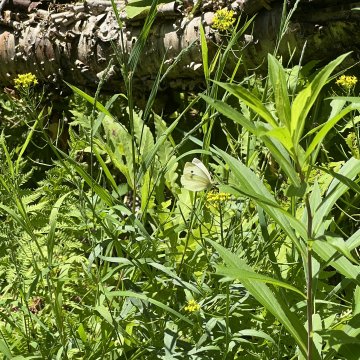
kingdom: Animalia
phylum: Arthropoda
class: Insecta
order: Lepidoptera
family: Pieridae
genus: Pieris
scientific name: Pieris rapae
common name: Cabbage White
